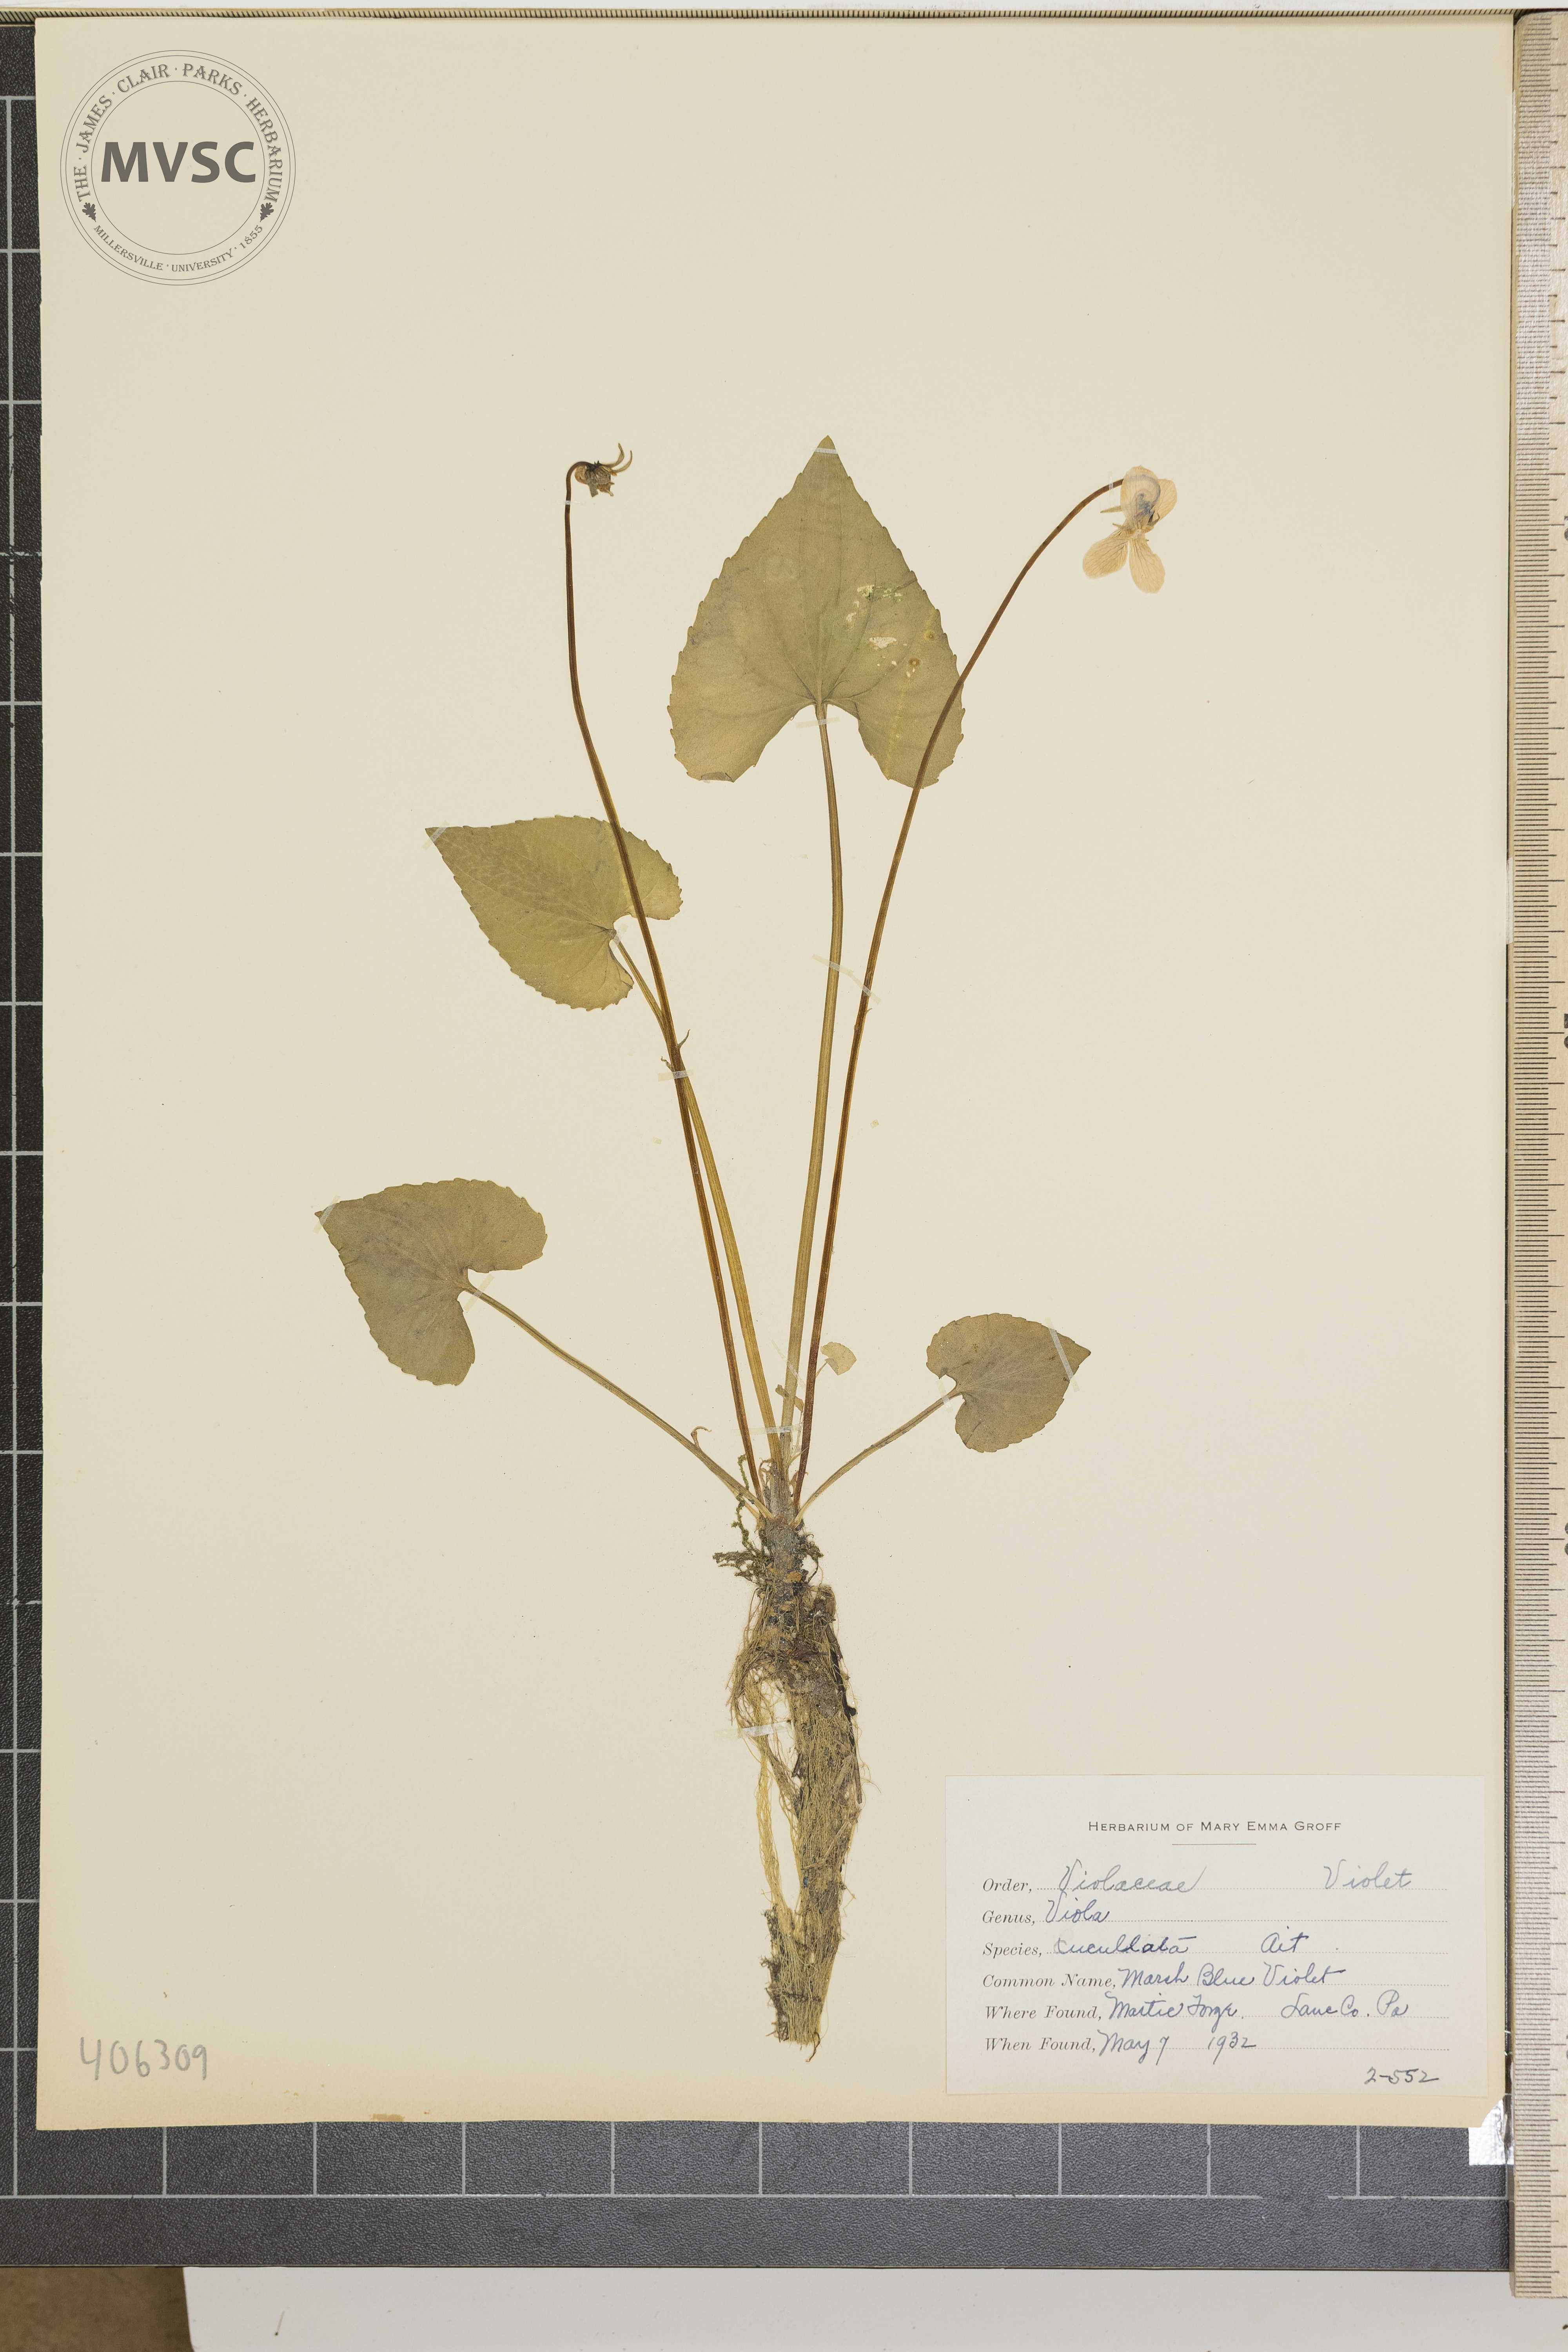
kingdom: Plantae
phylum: Tracheophyta
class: Magnoliopsida
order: Malpighiales
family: Violaceae
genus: Viola
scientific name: Viola cucullata
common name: Marsh Blue Violet
